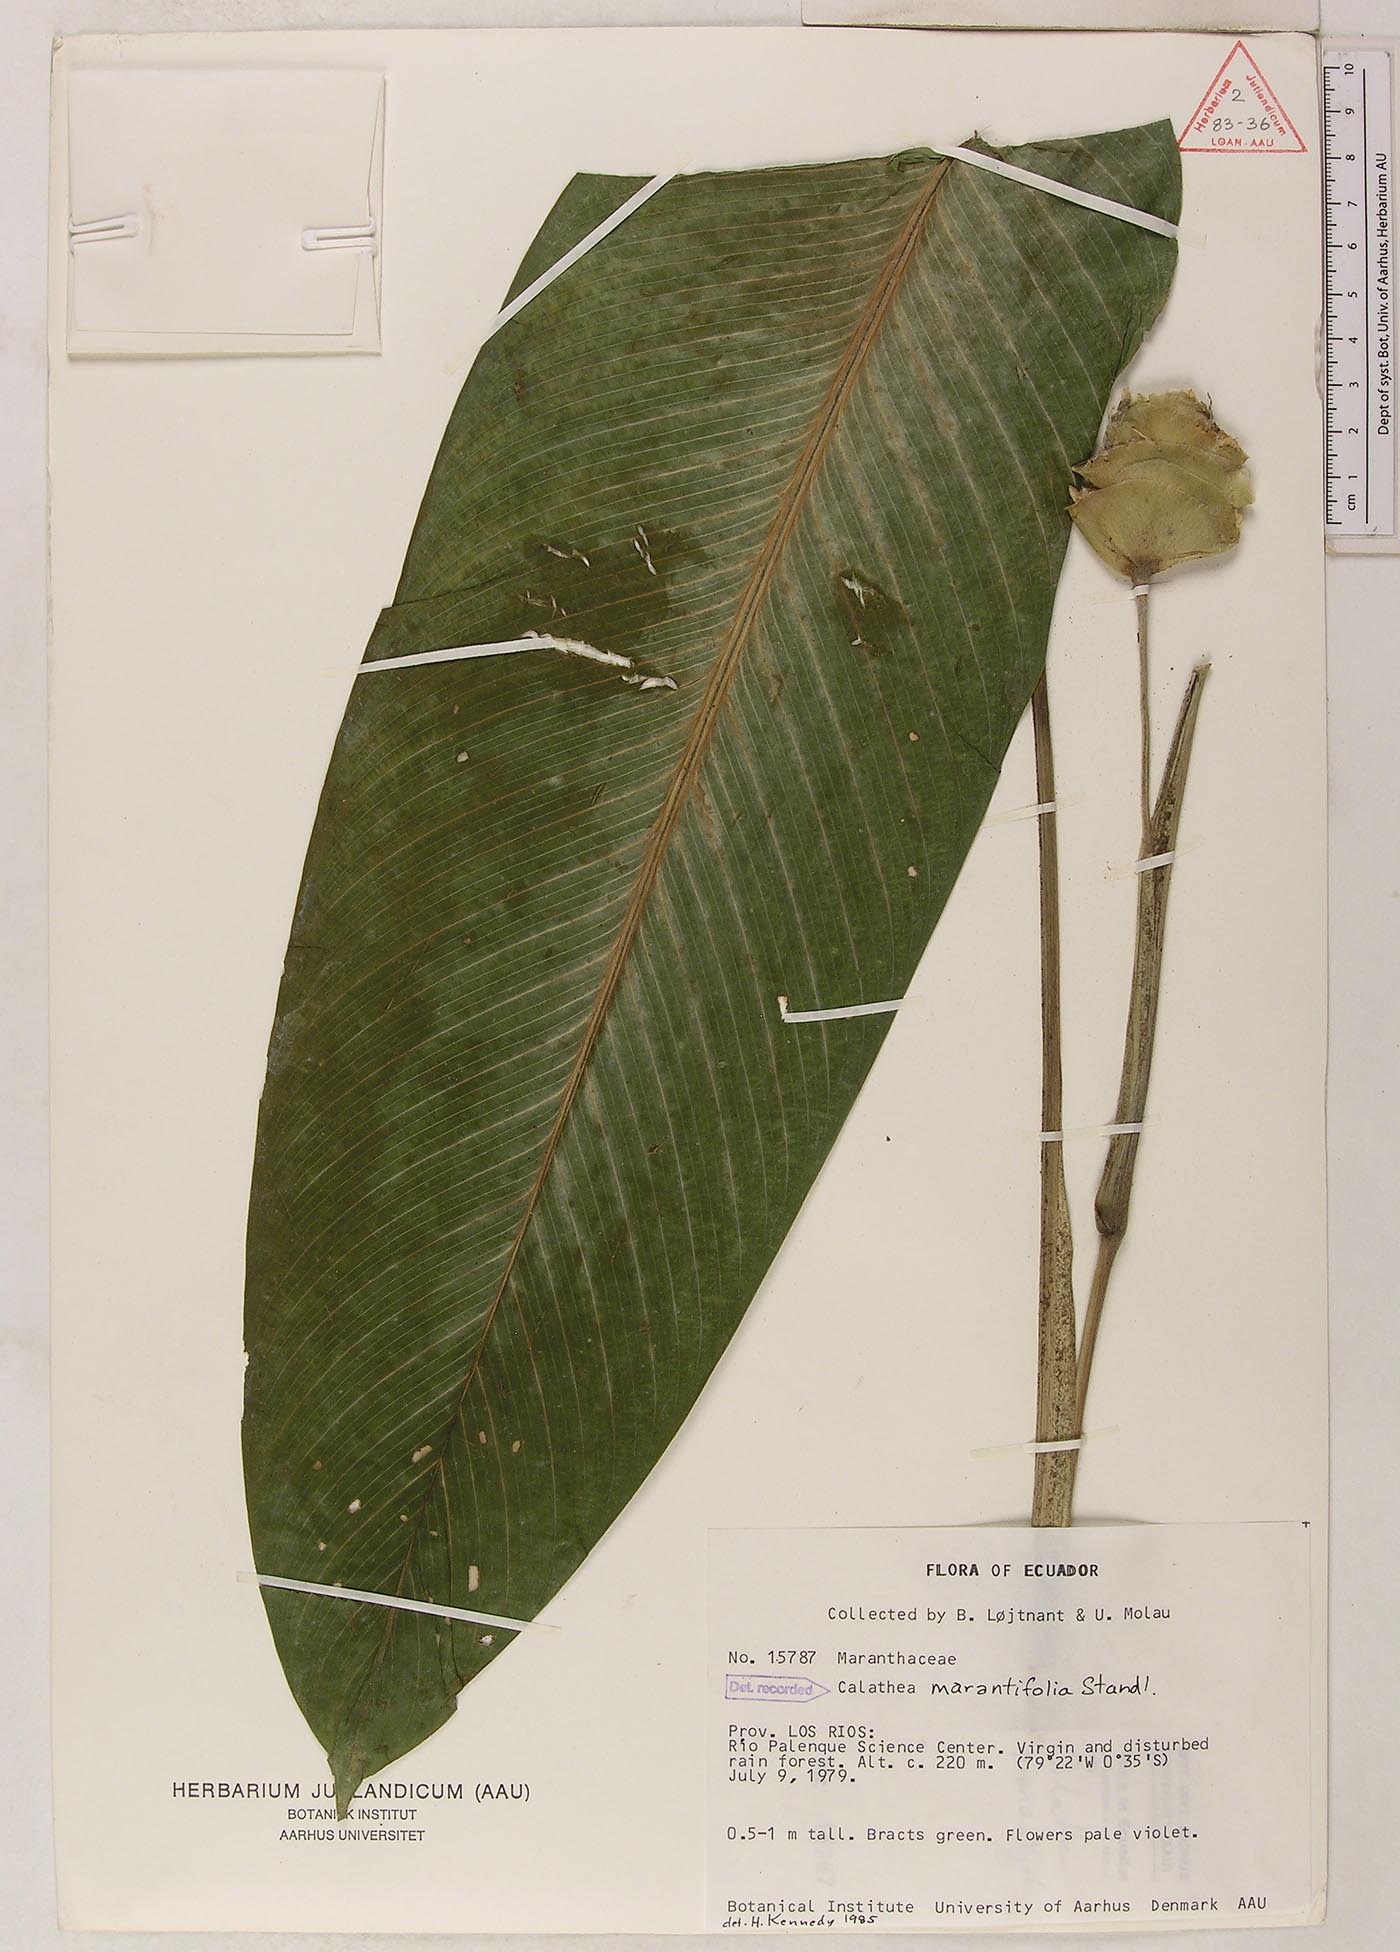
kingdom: Plantae
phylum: Tracheophyta
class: Liliopsida
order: Zingiberales
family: Marantaceae
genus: Goeppertia
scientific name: Goeppertia marantifolia
